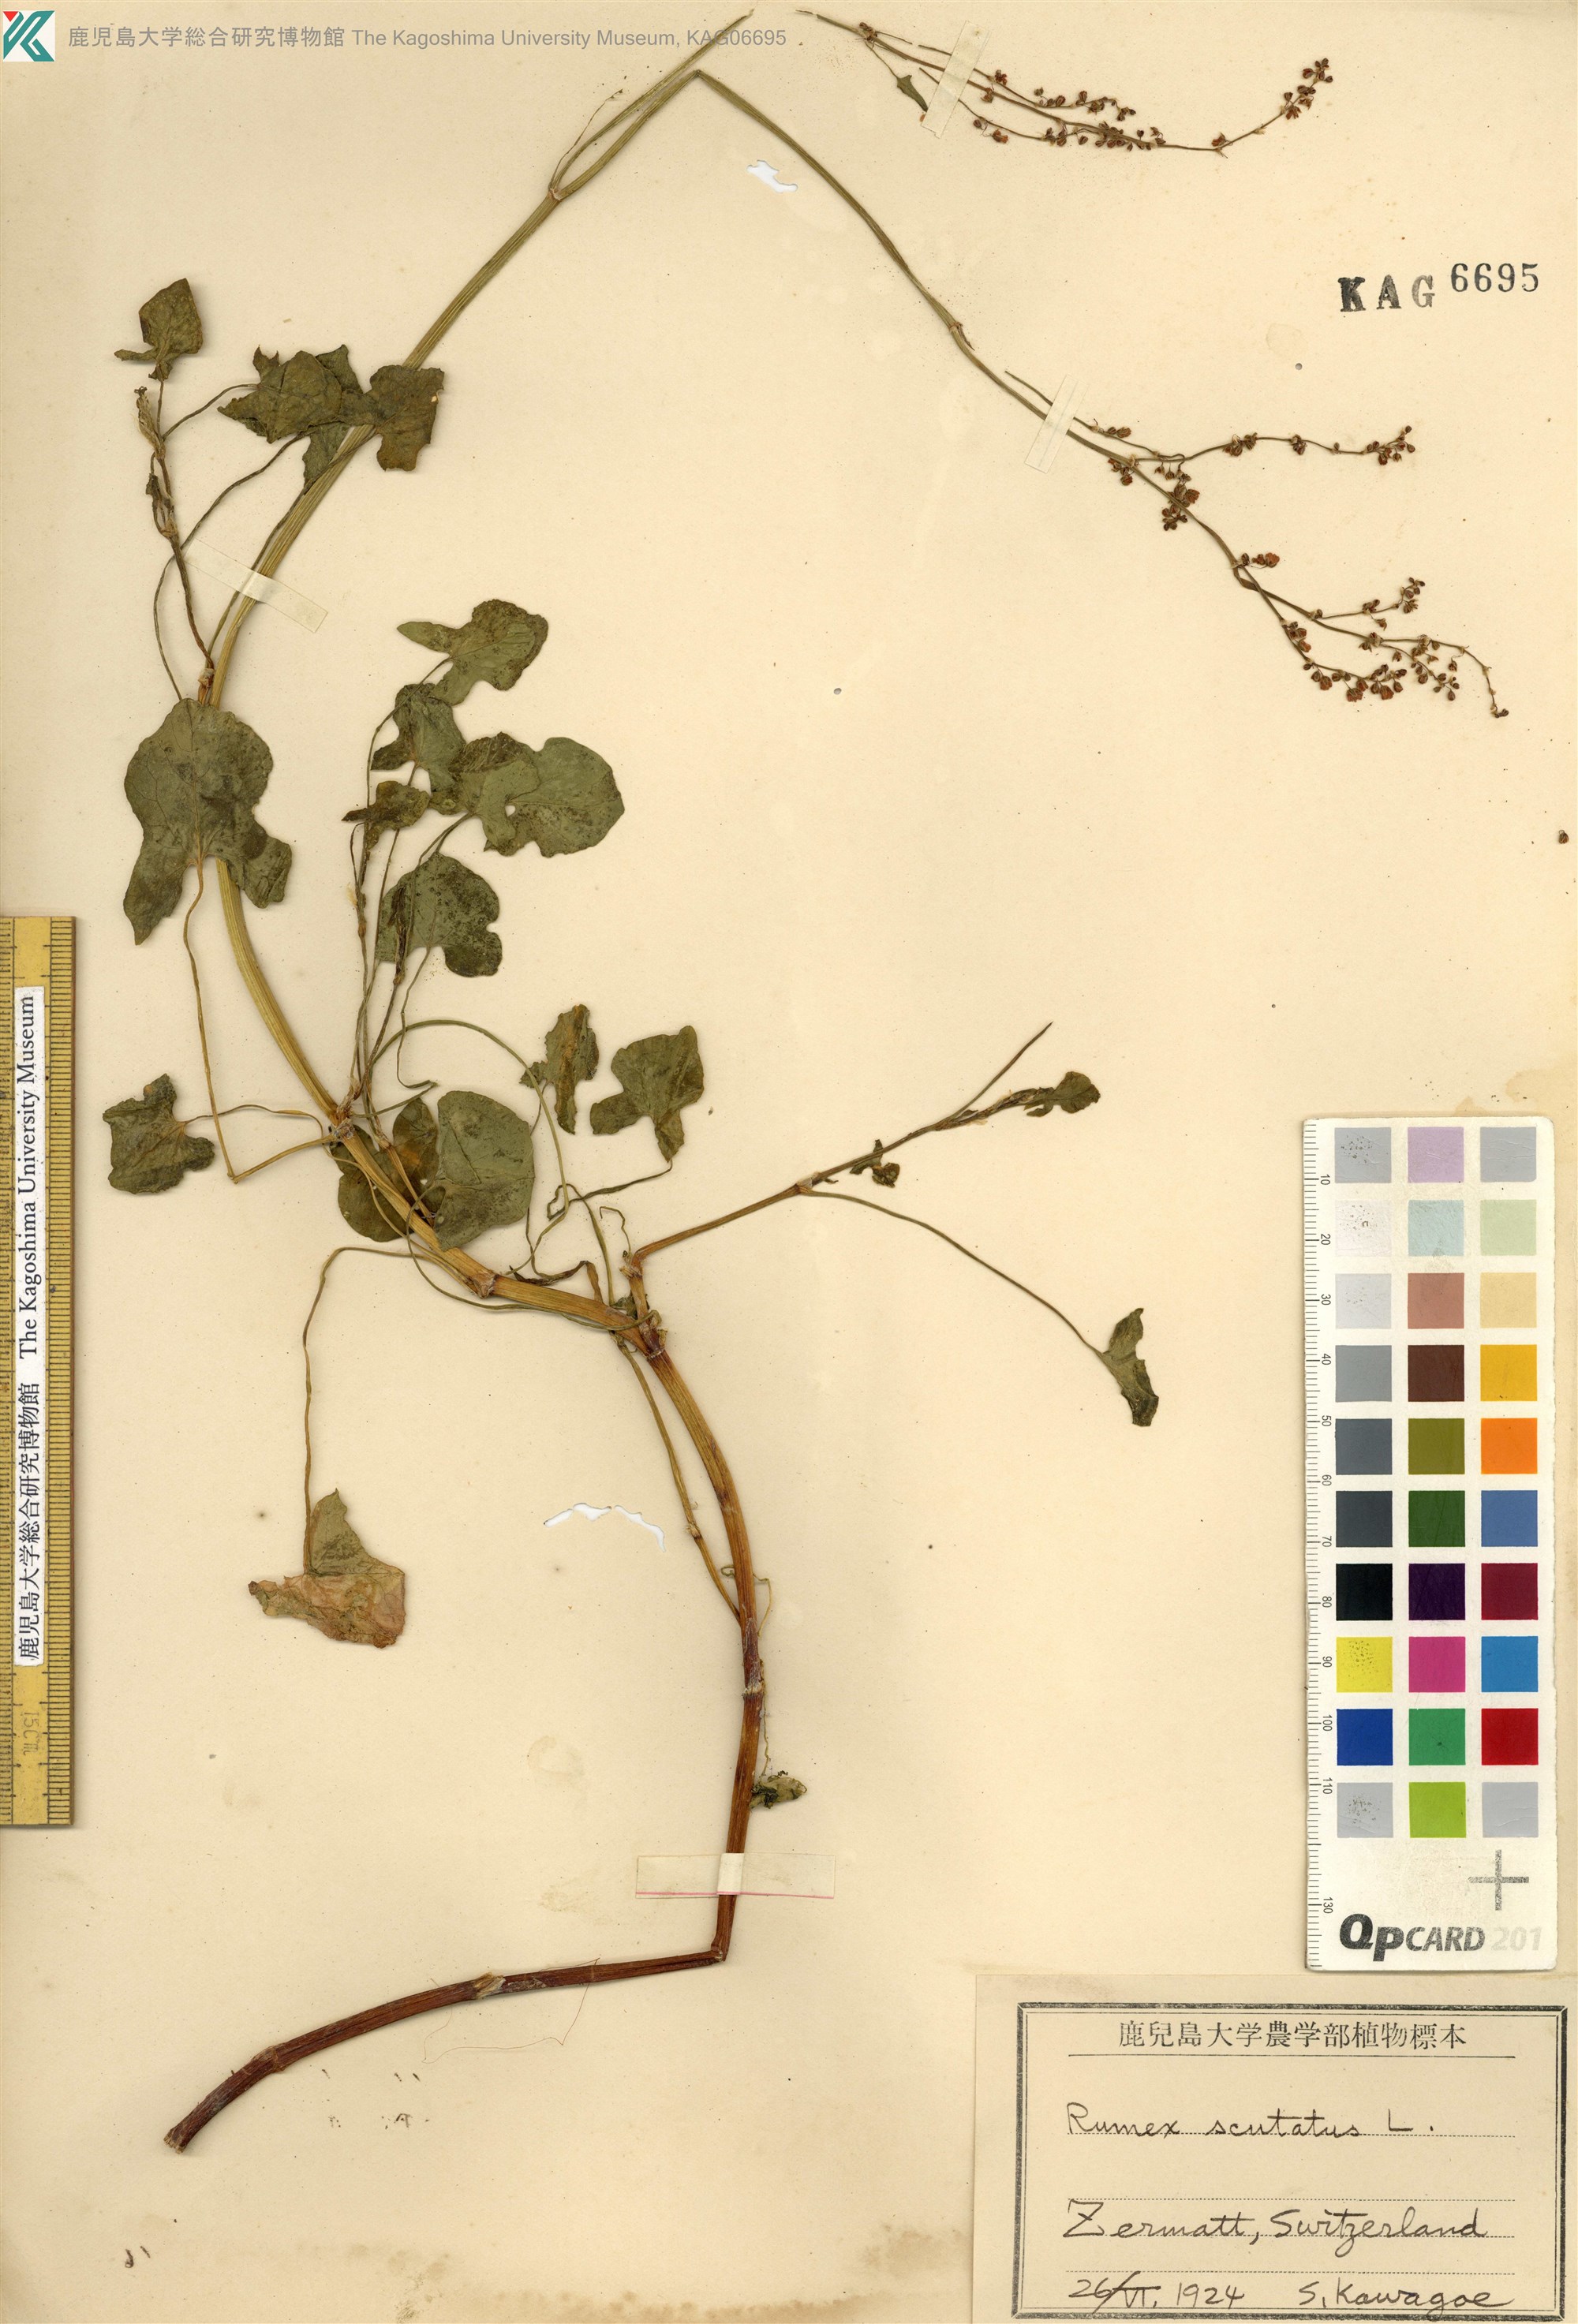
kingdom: Plantae
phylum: Tracheophyta
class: Magnoliopsida
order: Caryophyllales
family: Polygonaceae
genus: Rumex
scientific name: Rumex scutatus
